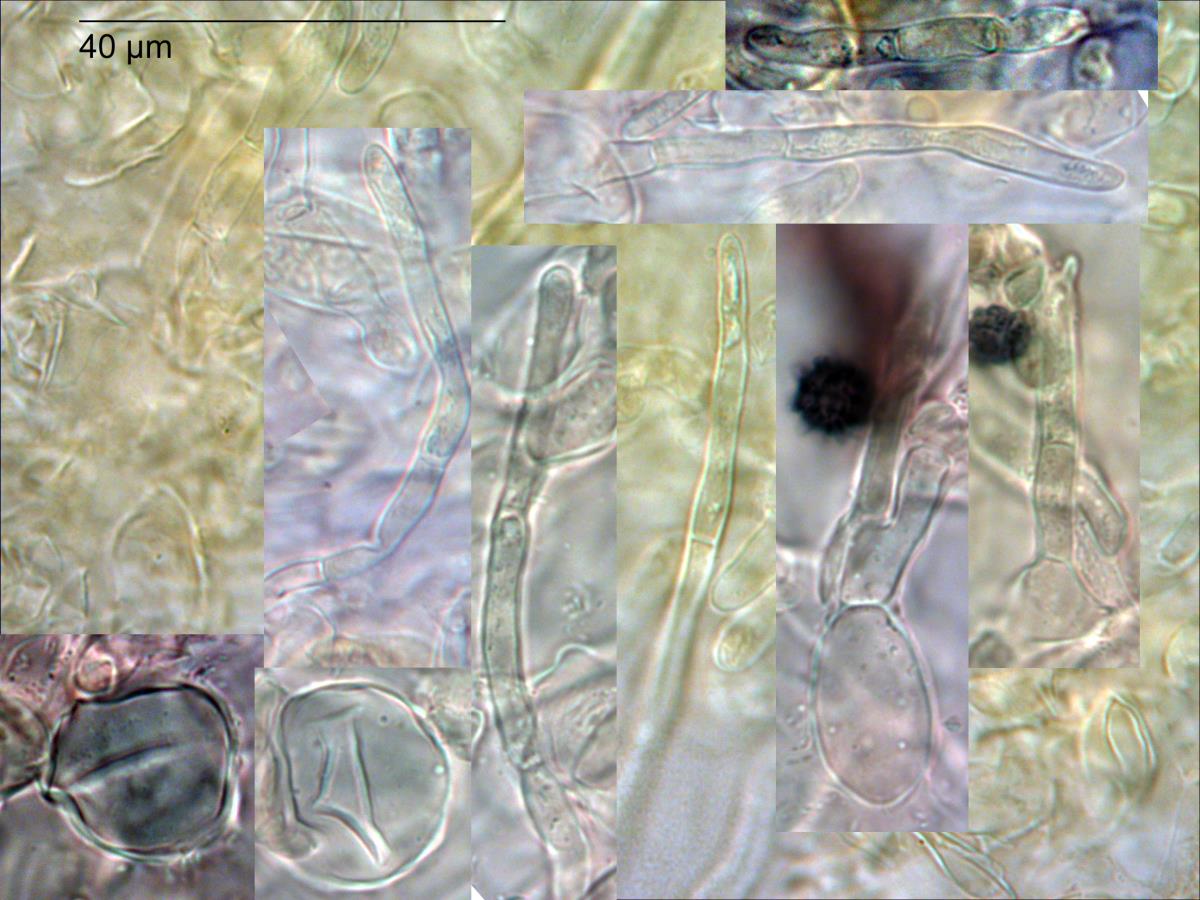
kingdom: Fungi
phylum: Basidiomycota
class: Agaricomycetes
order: Russulales
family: Russulaceae
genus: Russula
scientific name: Russula macrocystidiata
